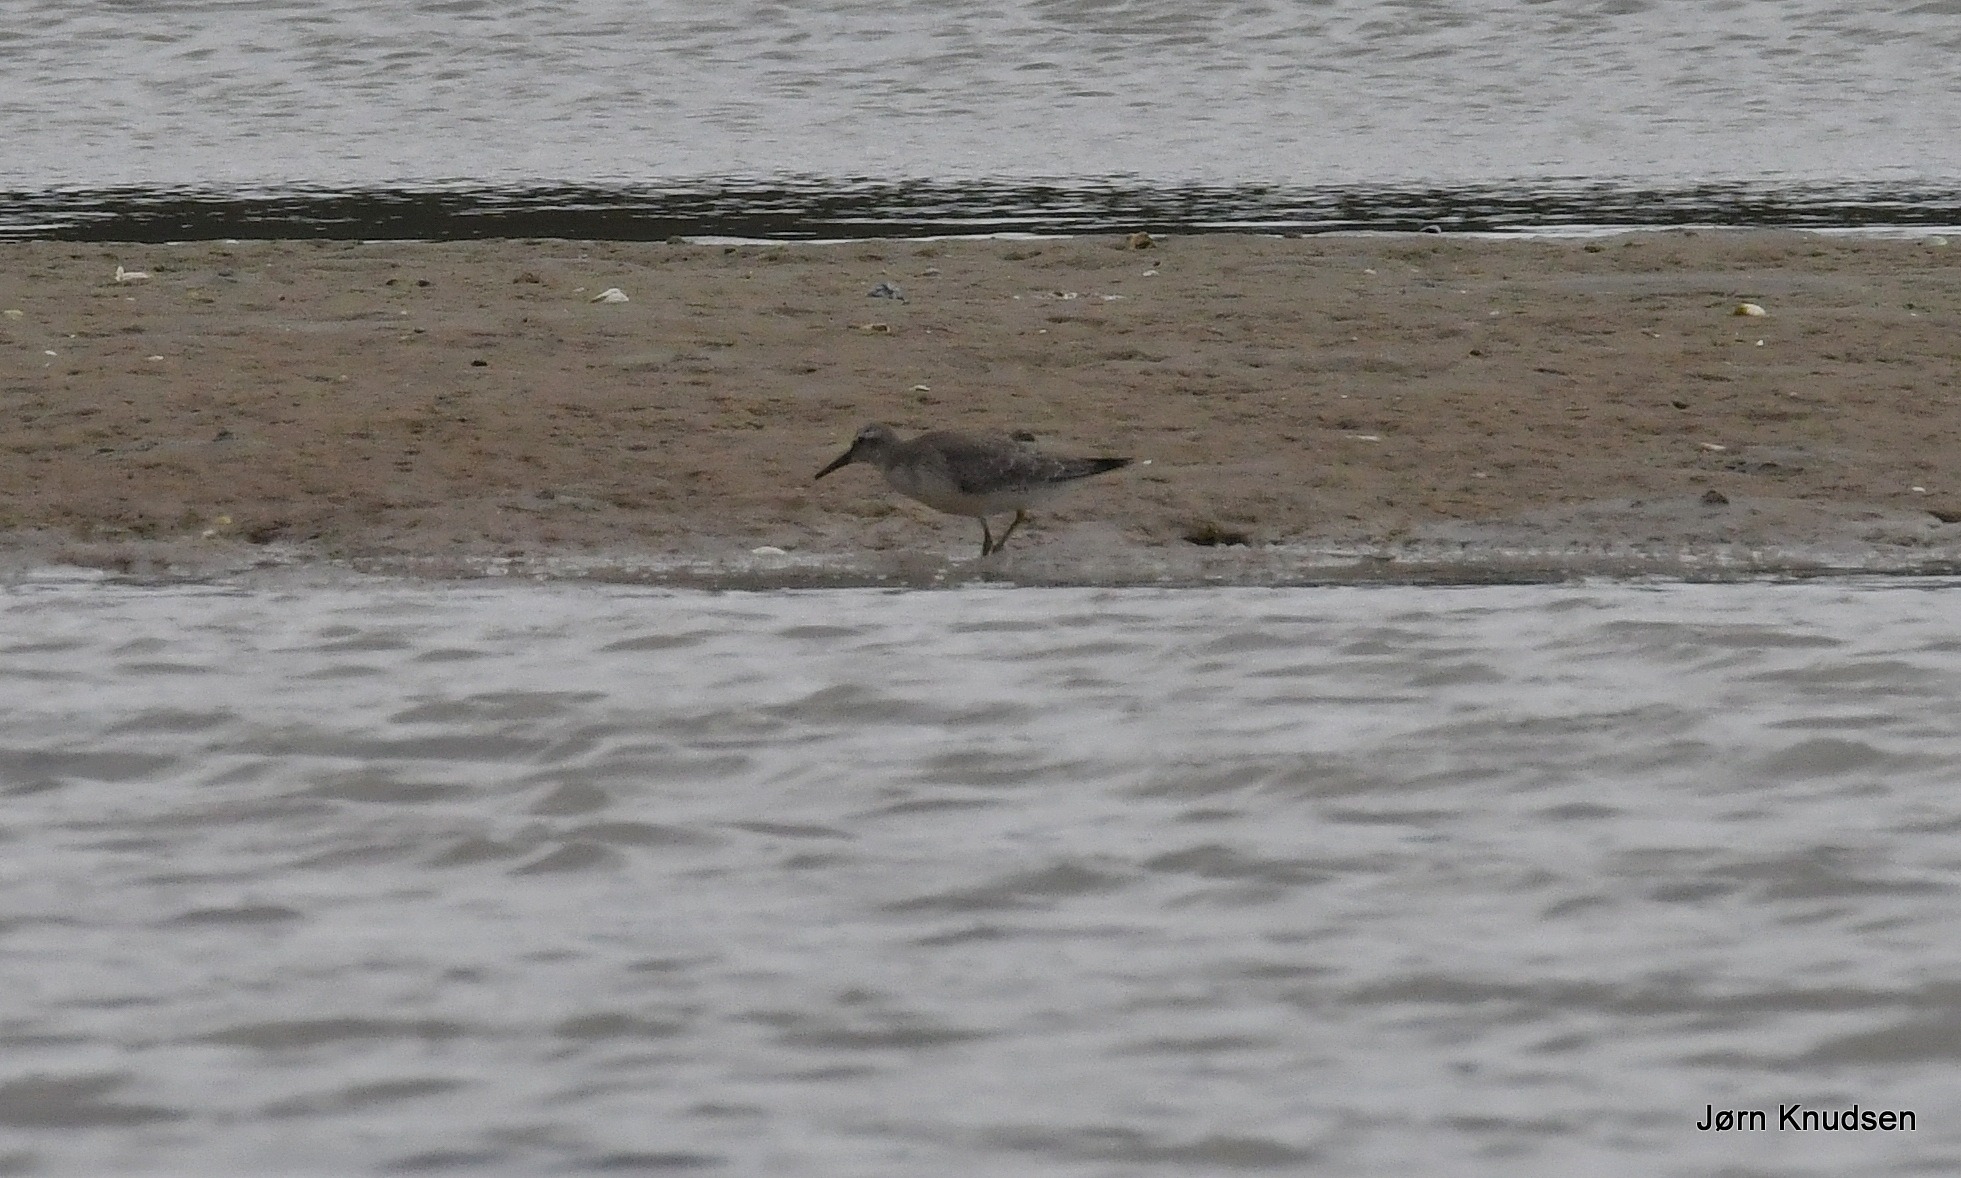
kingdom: Animalia
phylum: Chordata
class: Aves
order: Charadriiformes
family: Scolopacidae
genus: Calidris
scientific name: Calidris canutus
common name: Islandsk ryle
